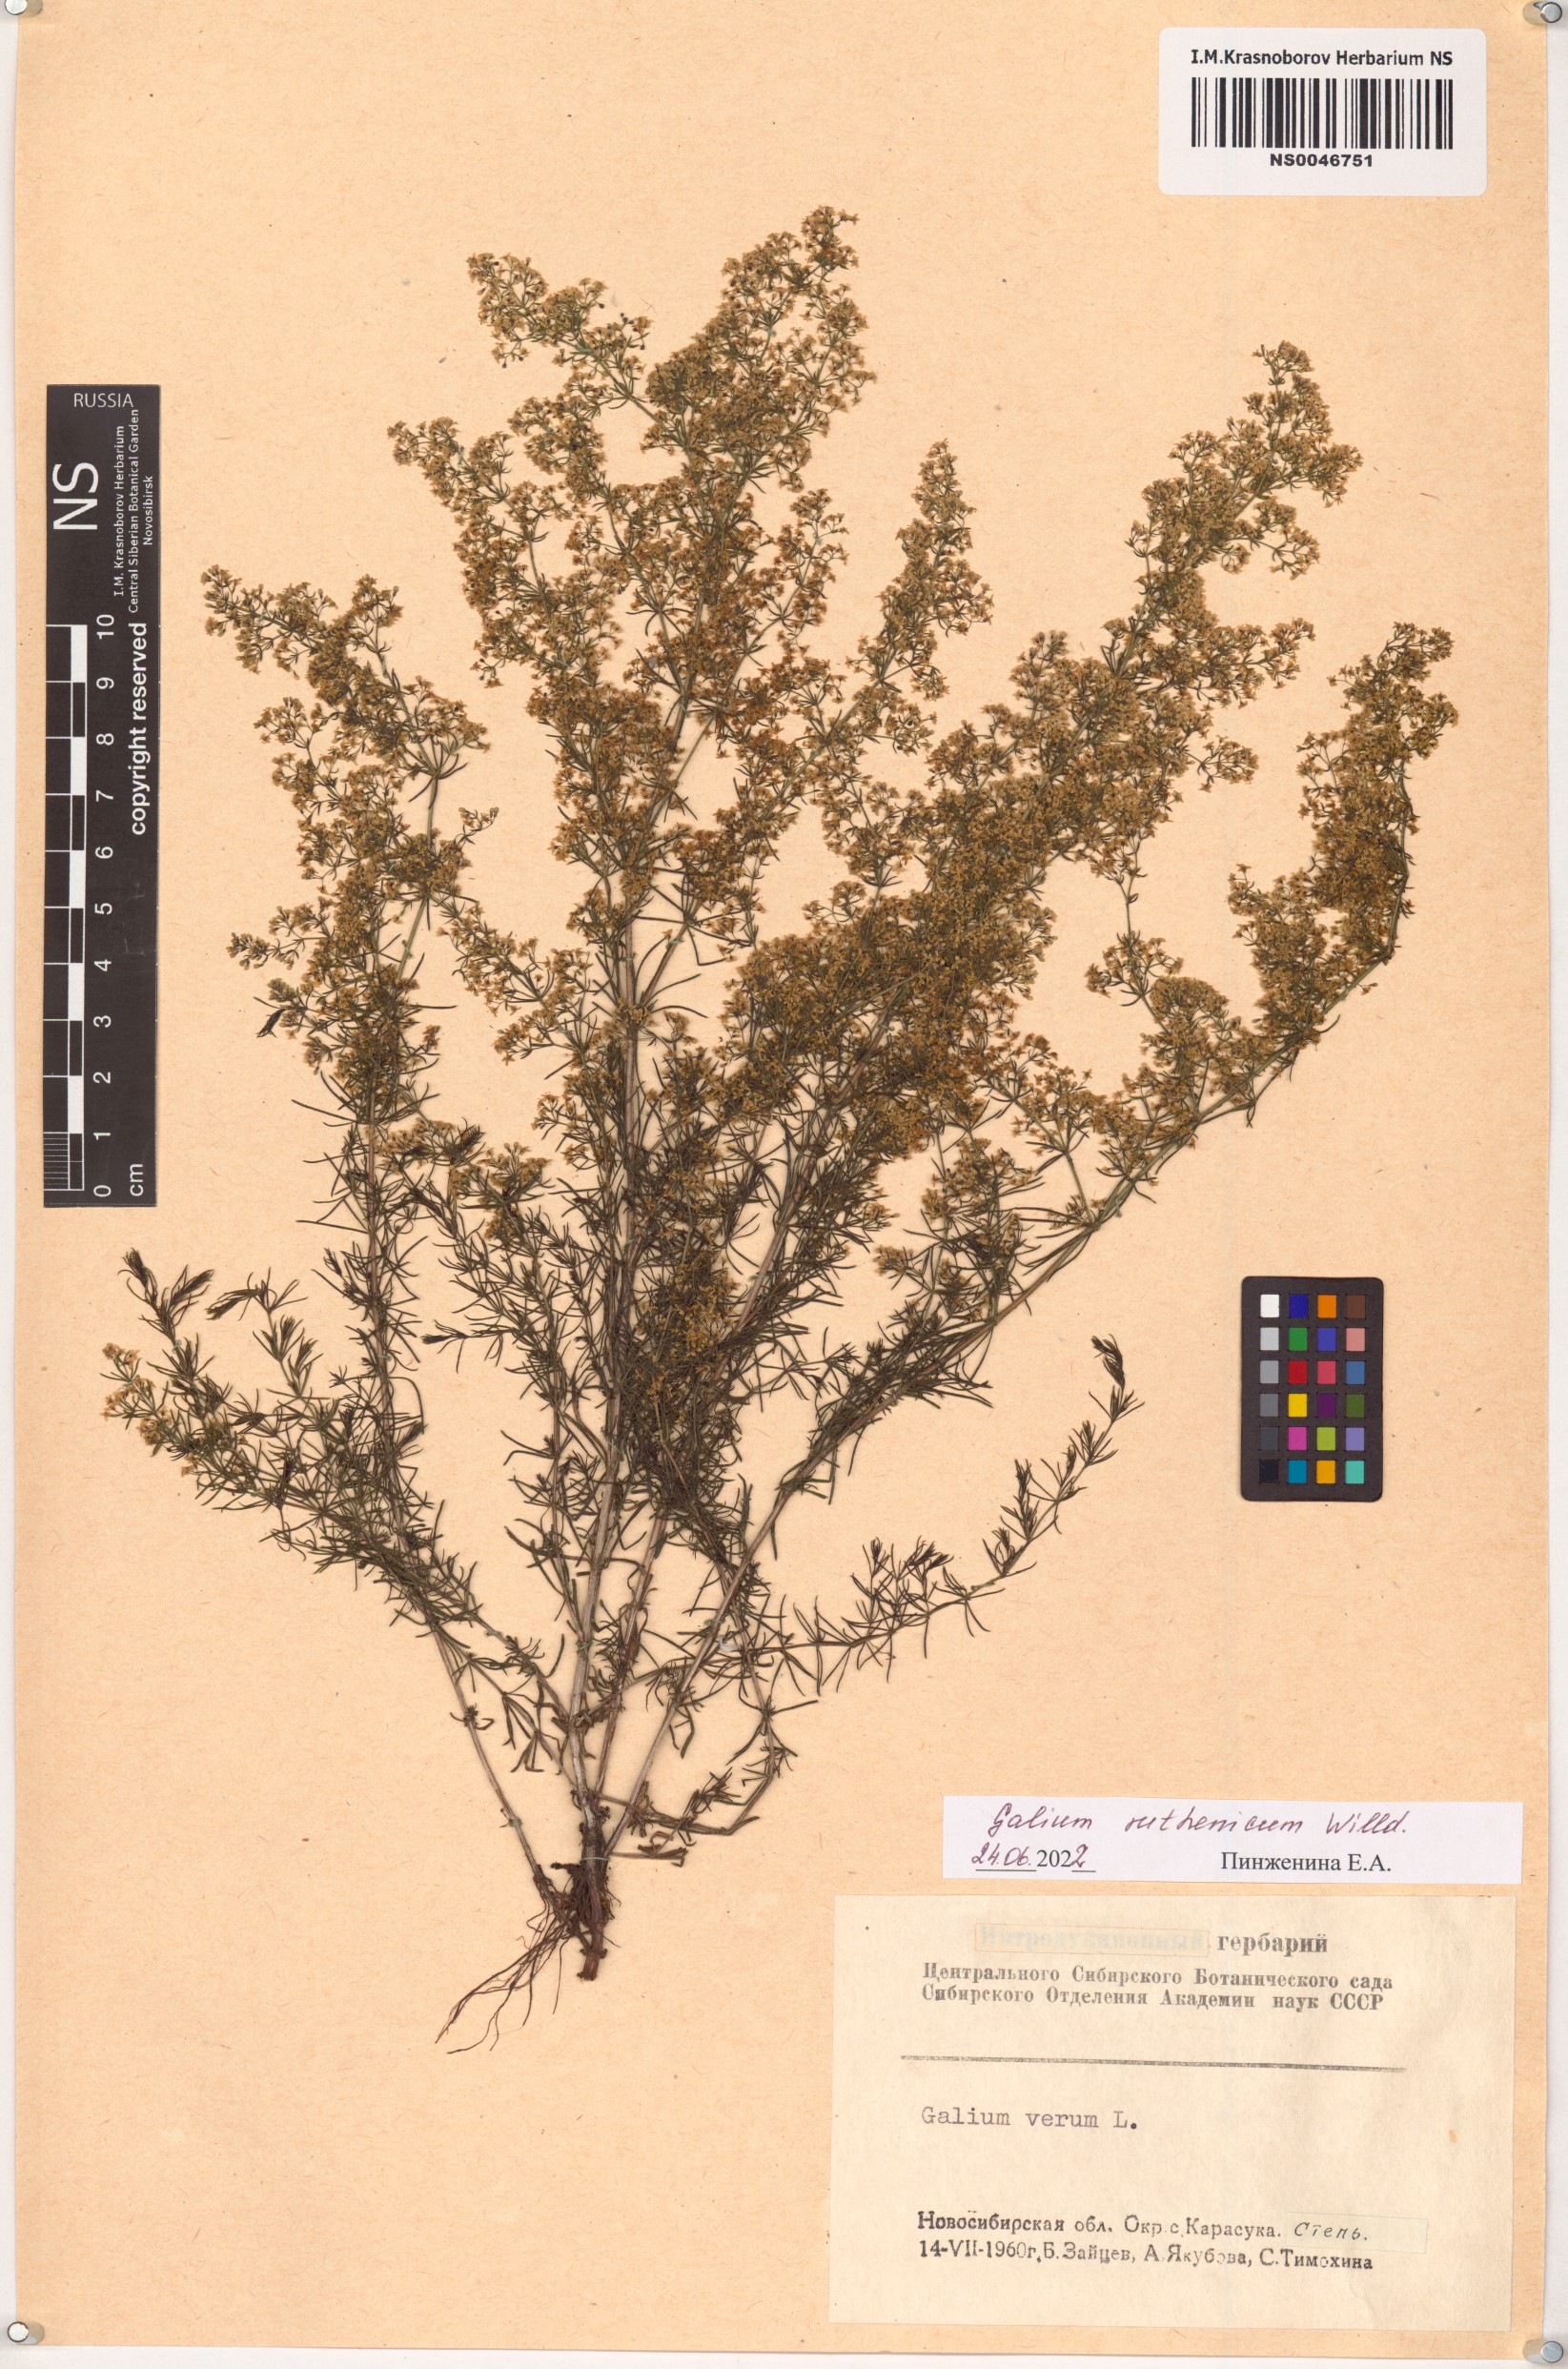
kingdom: Plantae
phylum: Tracheophyta
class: Magnoliopsida
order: Gentianales
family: Rubiaceae
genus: Galium
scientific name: Galium verum
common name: Lady's bedstraw
